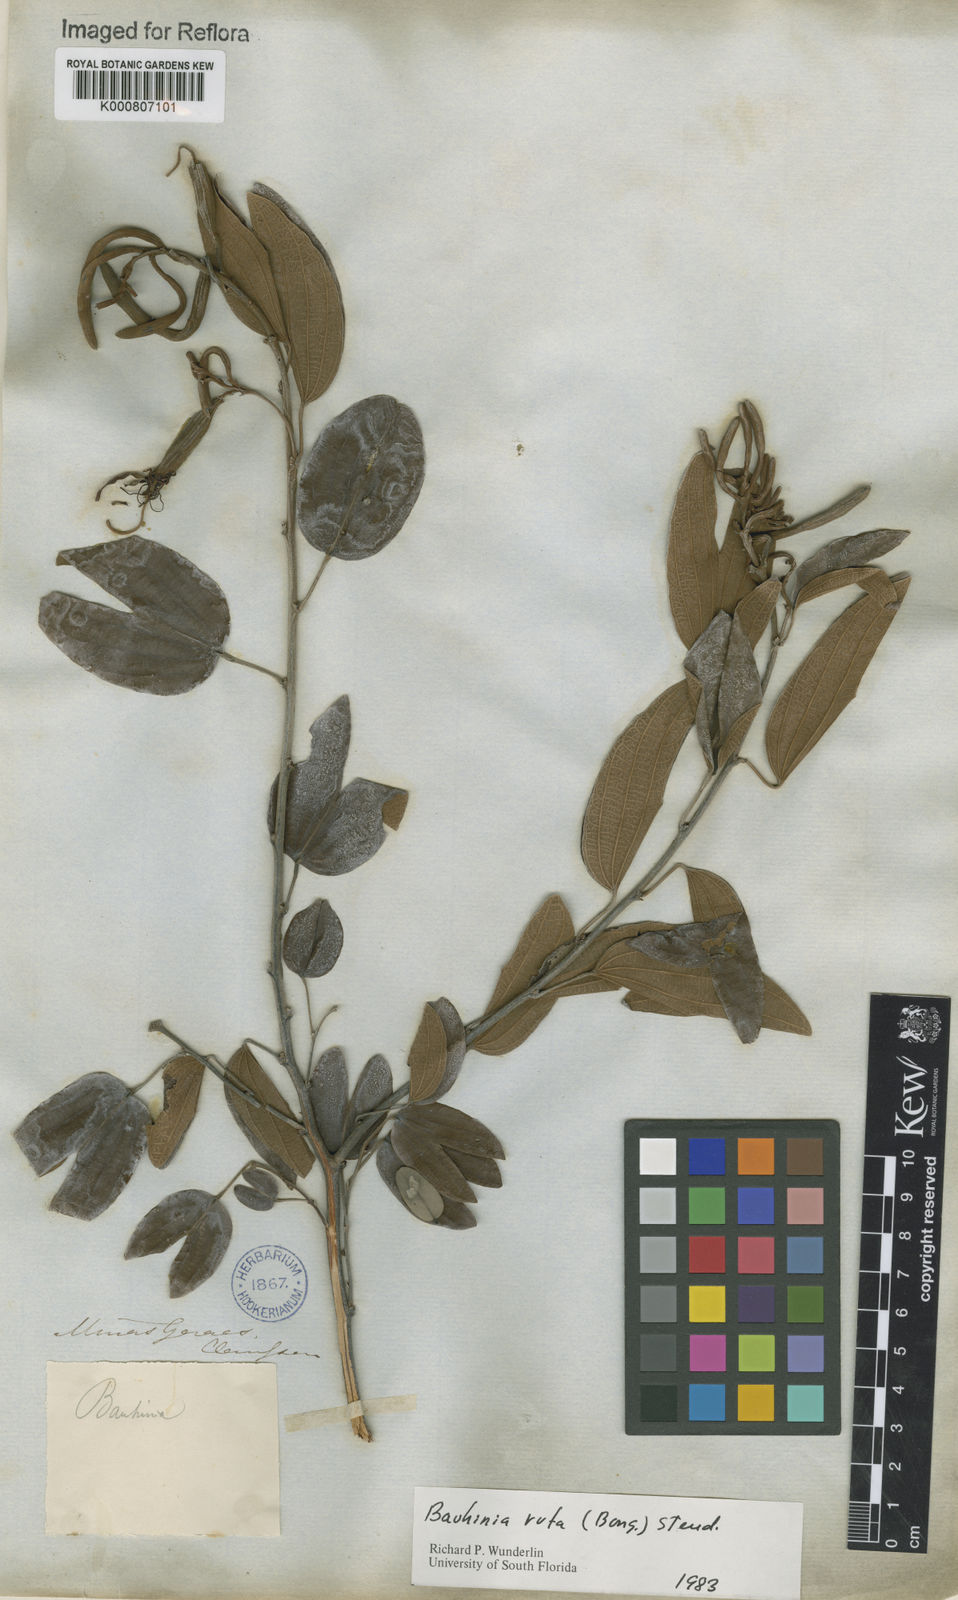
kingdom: Plantae
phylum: Tracheophyta
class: Magnoliopsida
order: Fabales
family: Fabaceae
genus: Bauhinia
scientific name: Bauhinia rufa
